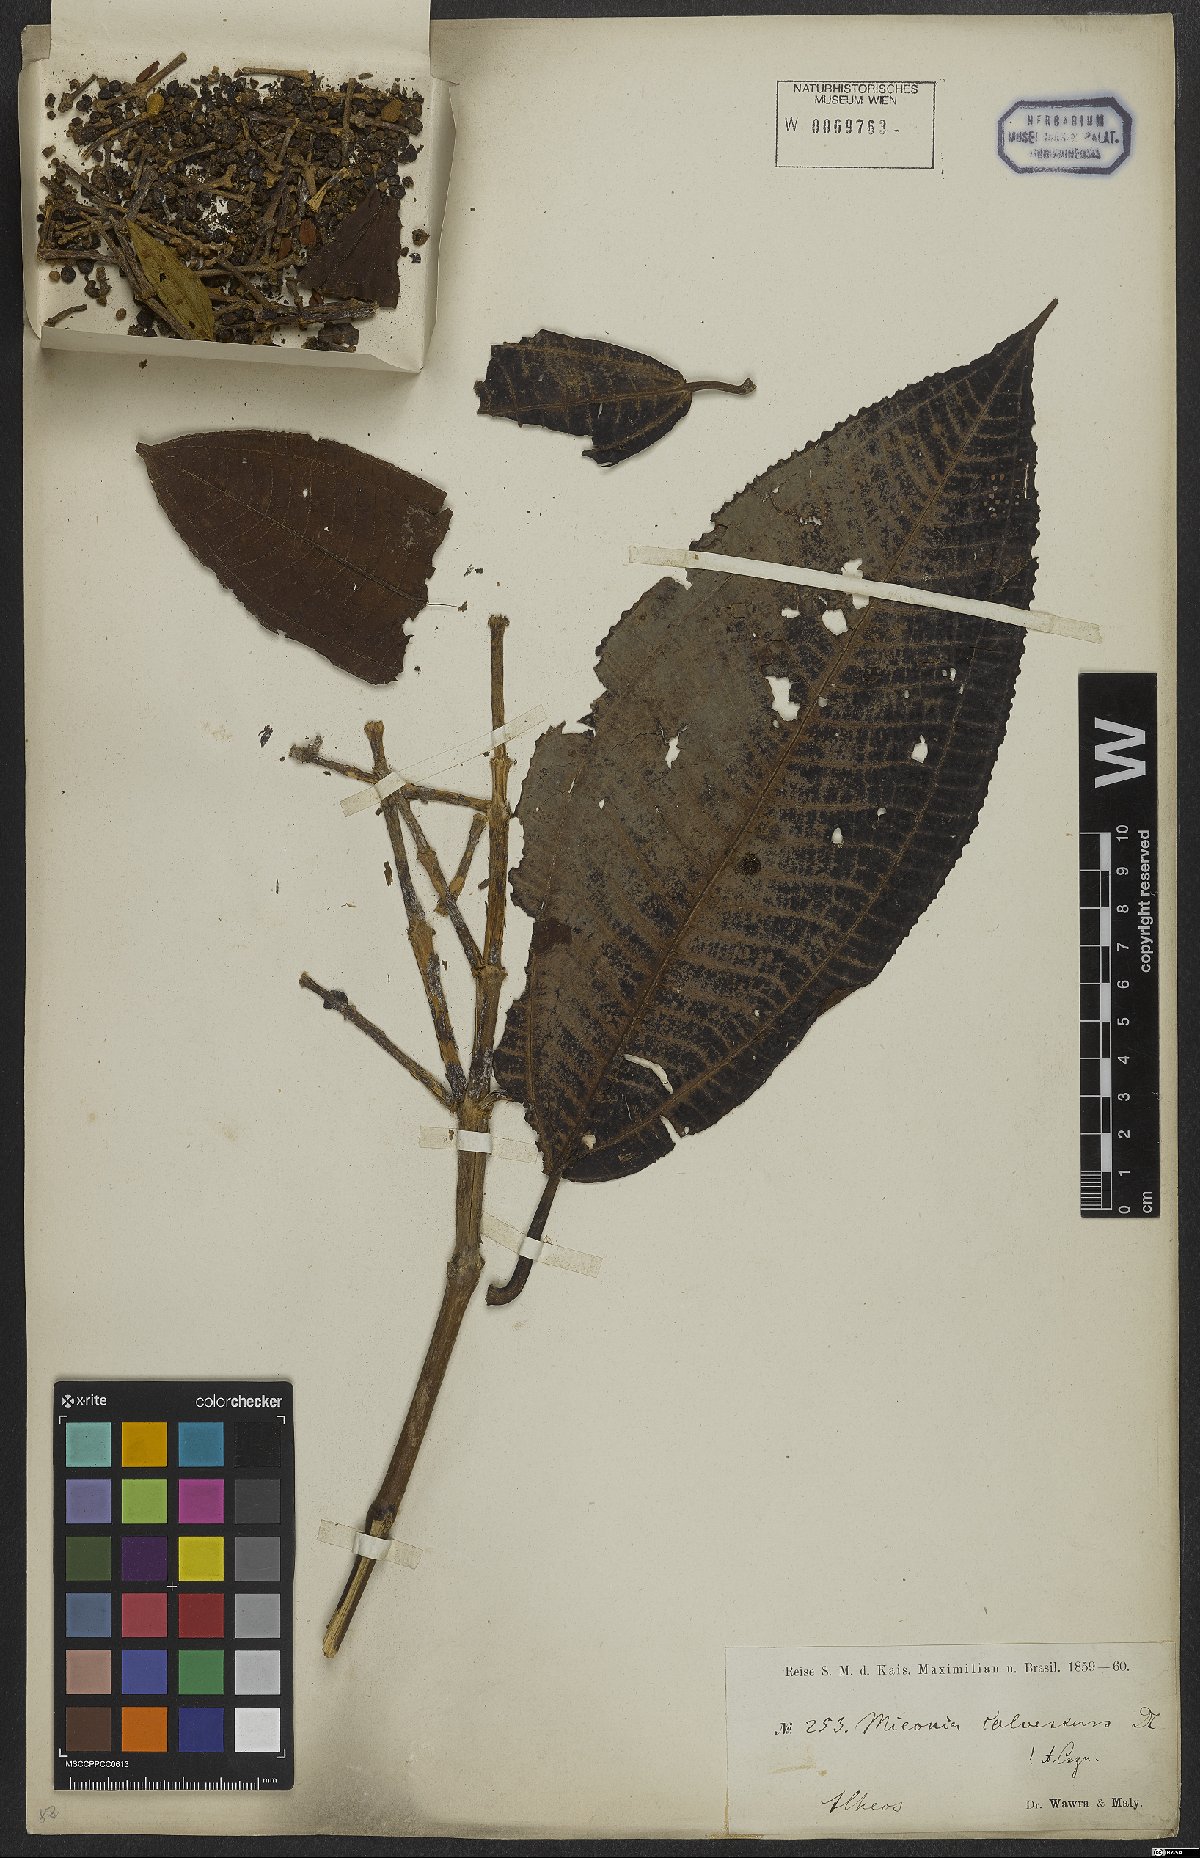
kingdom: Plantae
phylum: Tracheophyta
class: Magnoliopsida
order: Myrtales
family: Melastomataceae
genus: Miconia
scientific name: Miconia calvescens
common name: Purple plague
